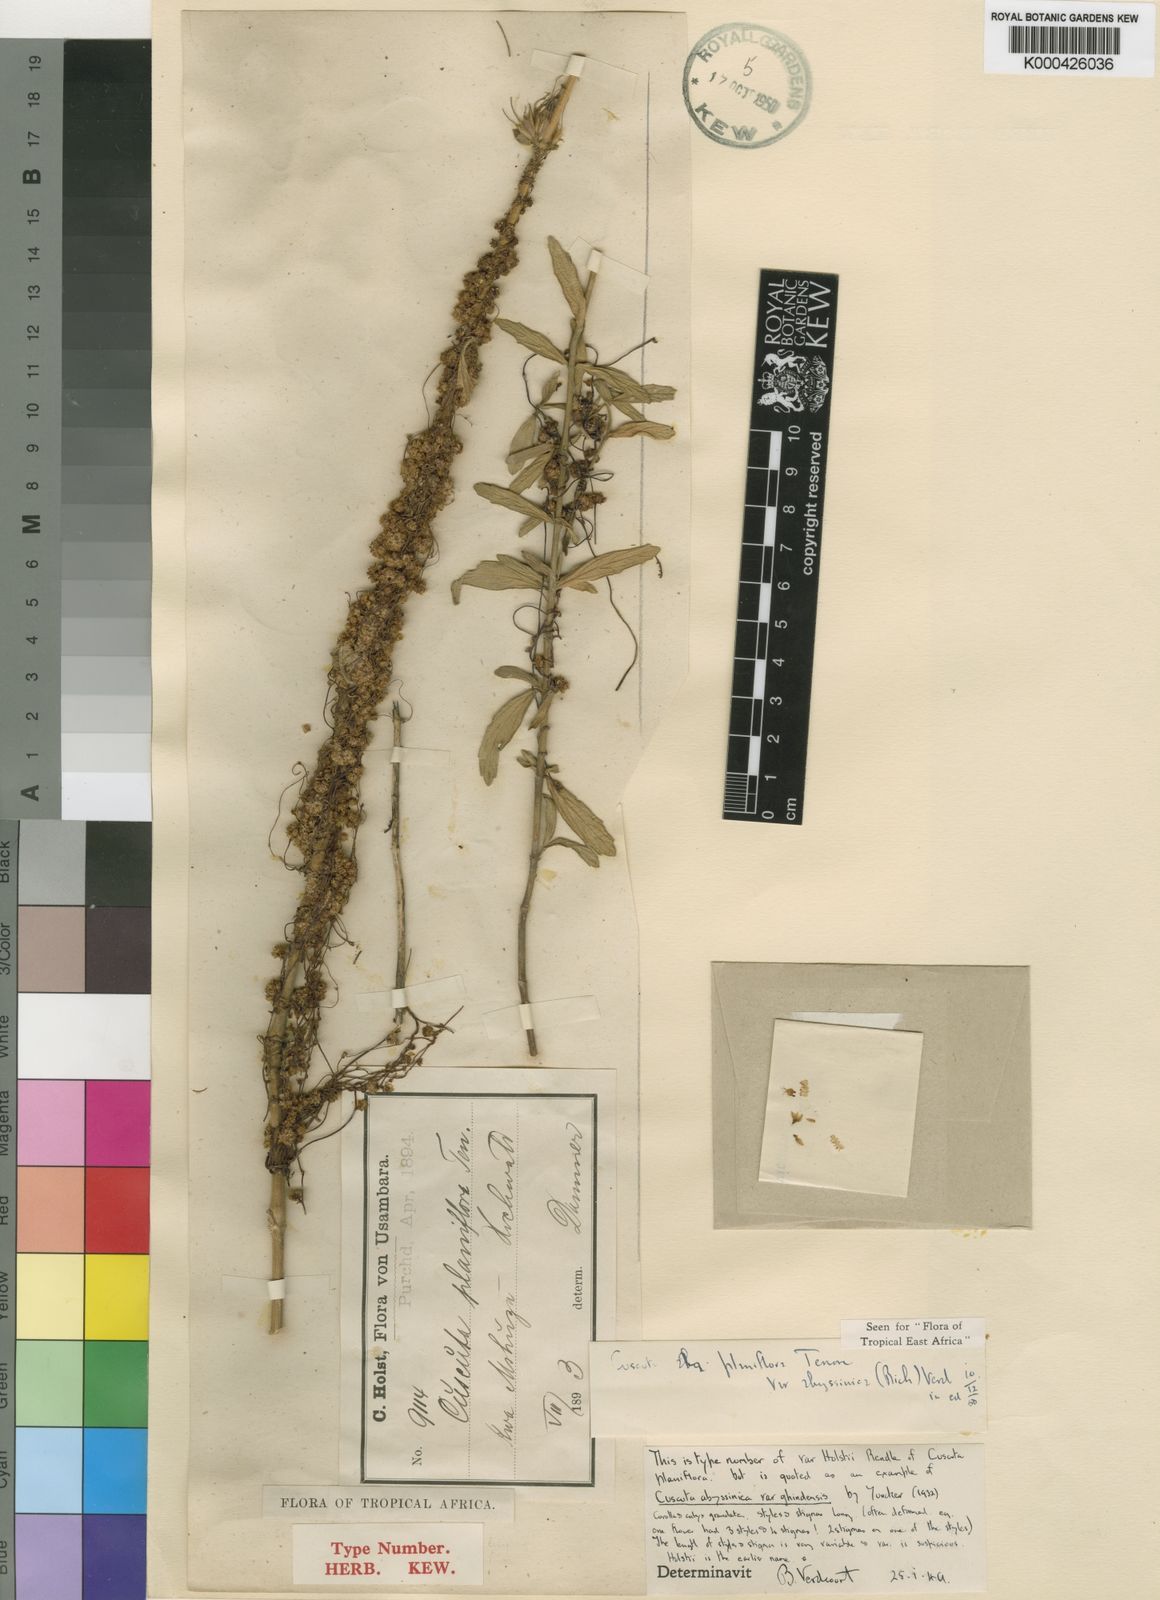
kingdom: Plantae
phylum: Tracheophyta
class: Magnoliopsida
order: Solanales
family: Convolvulaceae
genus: Cuscuta
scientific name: Cuscuta
